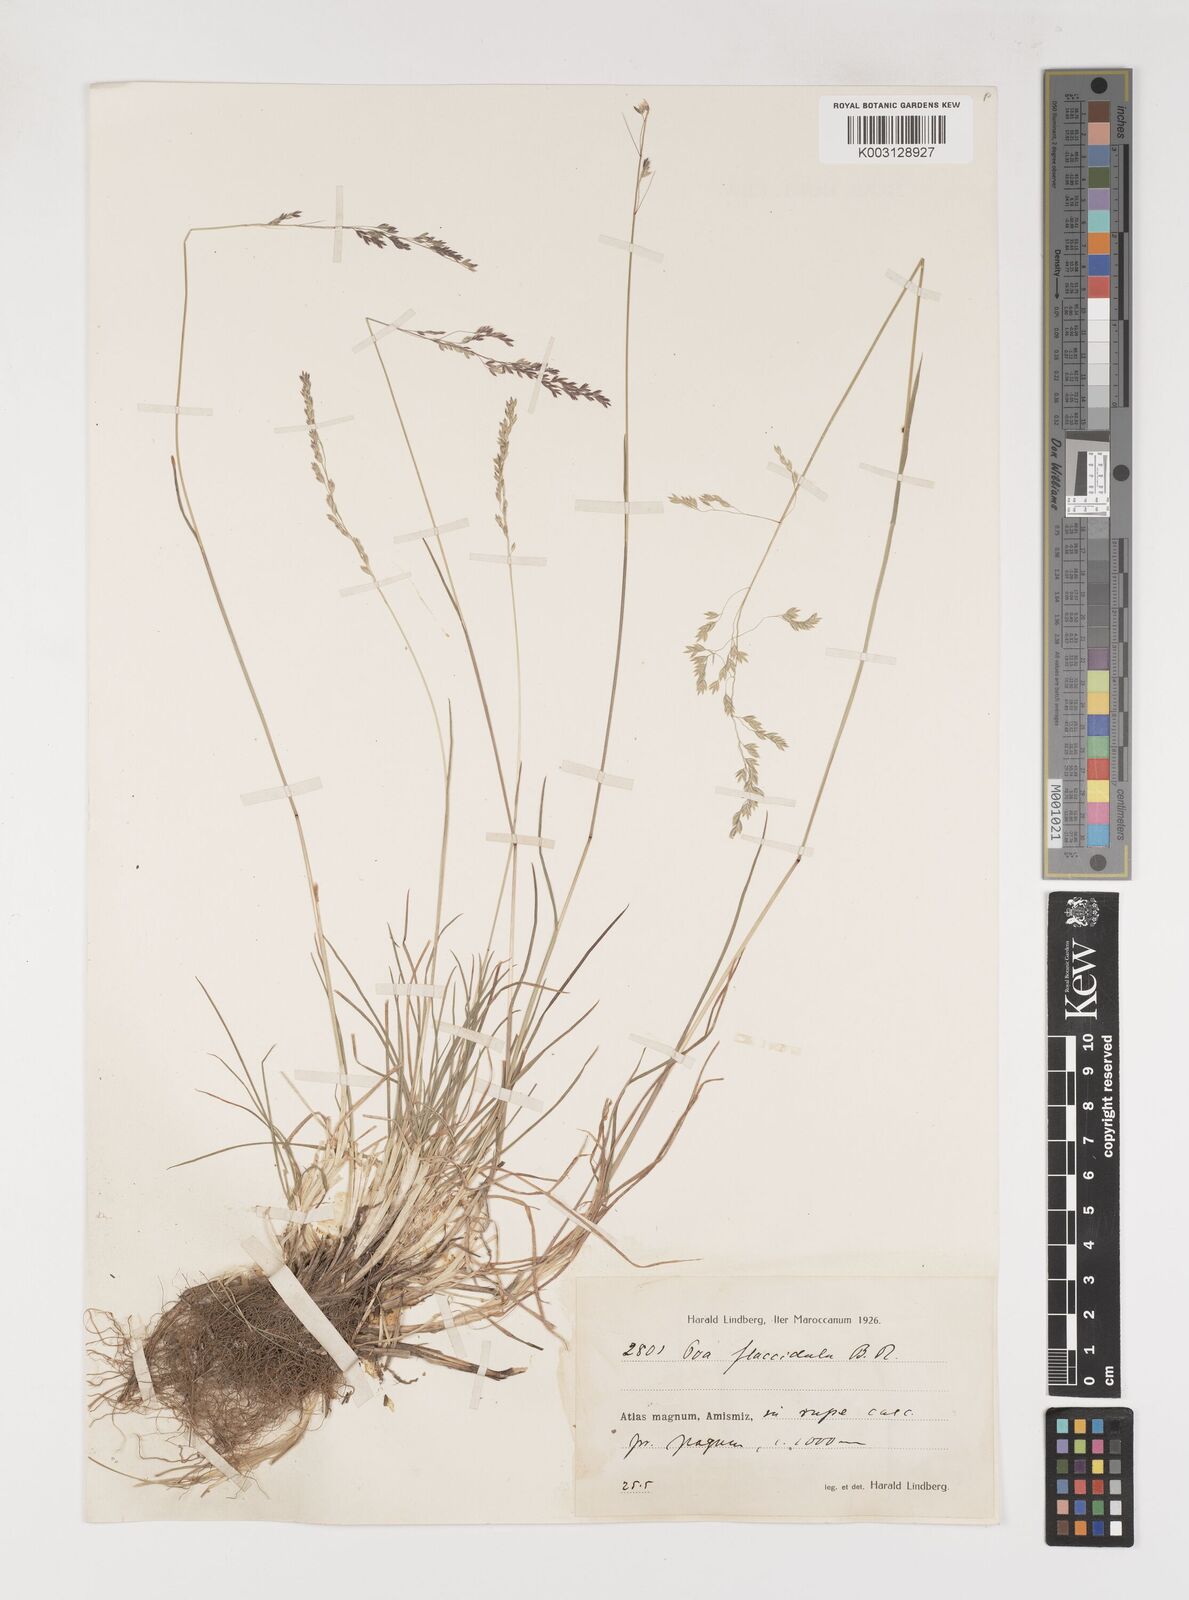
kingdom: Plantae
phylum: Tracheophyta
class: Liliopsida
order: Poales
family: Poaceae
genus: Poa
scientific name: Poa flaccidula
